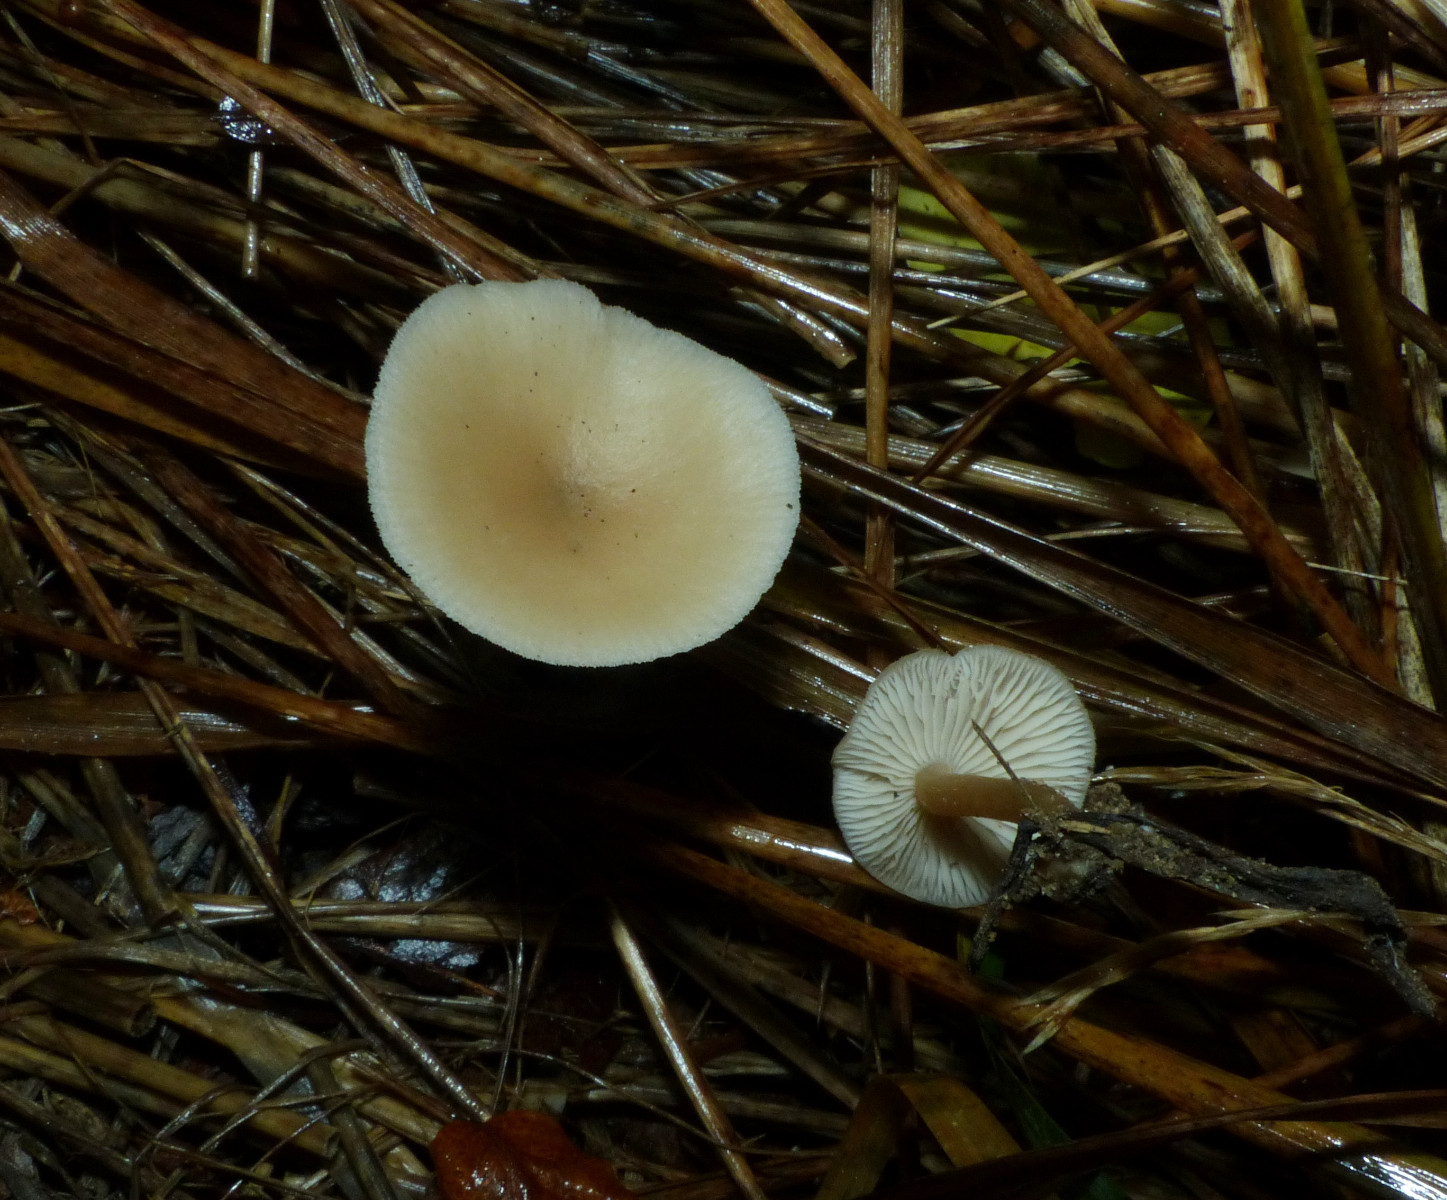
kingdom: Fungi
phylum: Basidiomycota
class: Agaricomycetes
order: Agaricales
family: Tricholomataceae
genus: Clitocybe
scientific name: Clitocybe fragrans
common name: vellugtende tragthat
